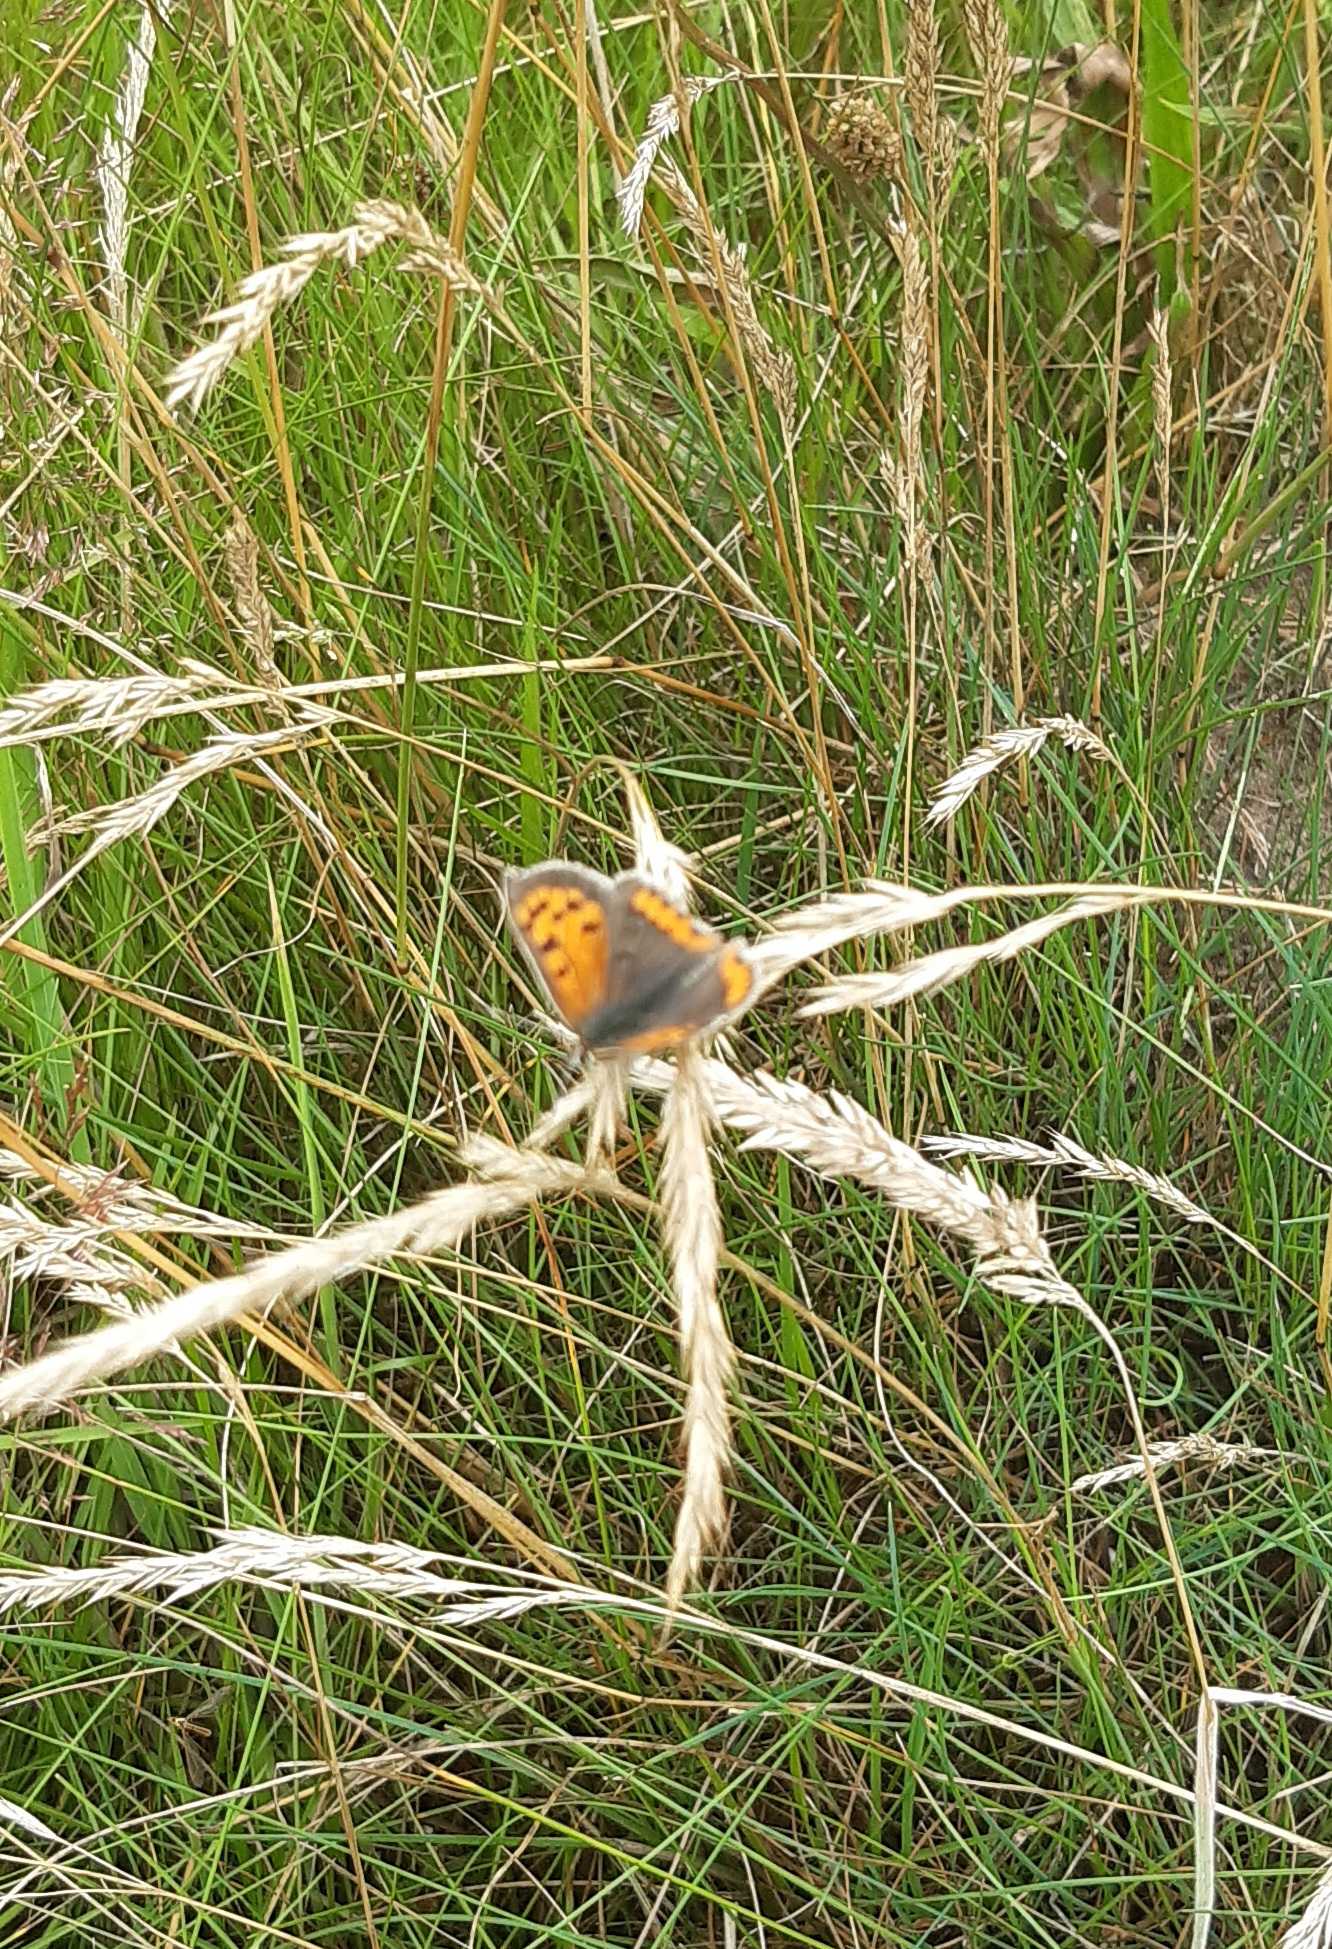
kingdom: Animalia
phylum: Arthropoda
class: Insecta
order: Lepidoptera
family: Lycaenidae
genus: Lycaena
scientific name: Lycaena phlaeas
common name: Lille ildfugl
